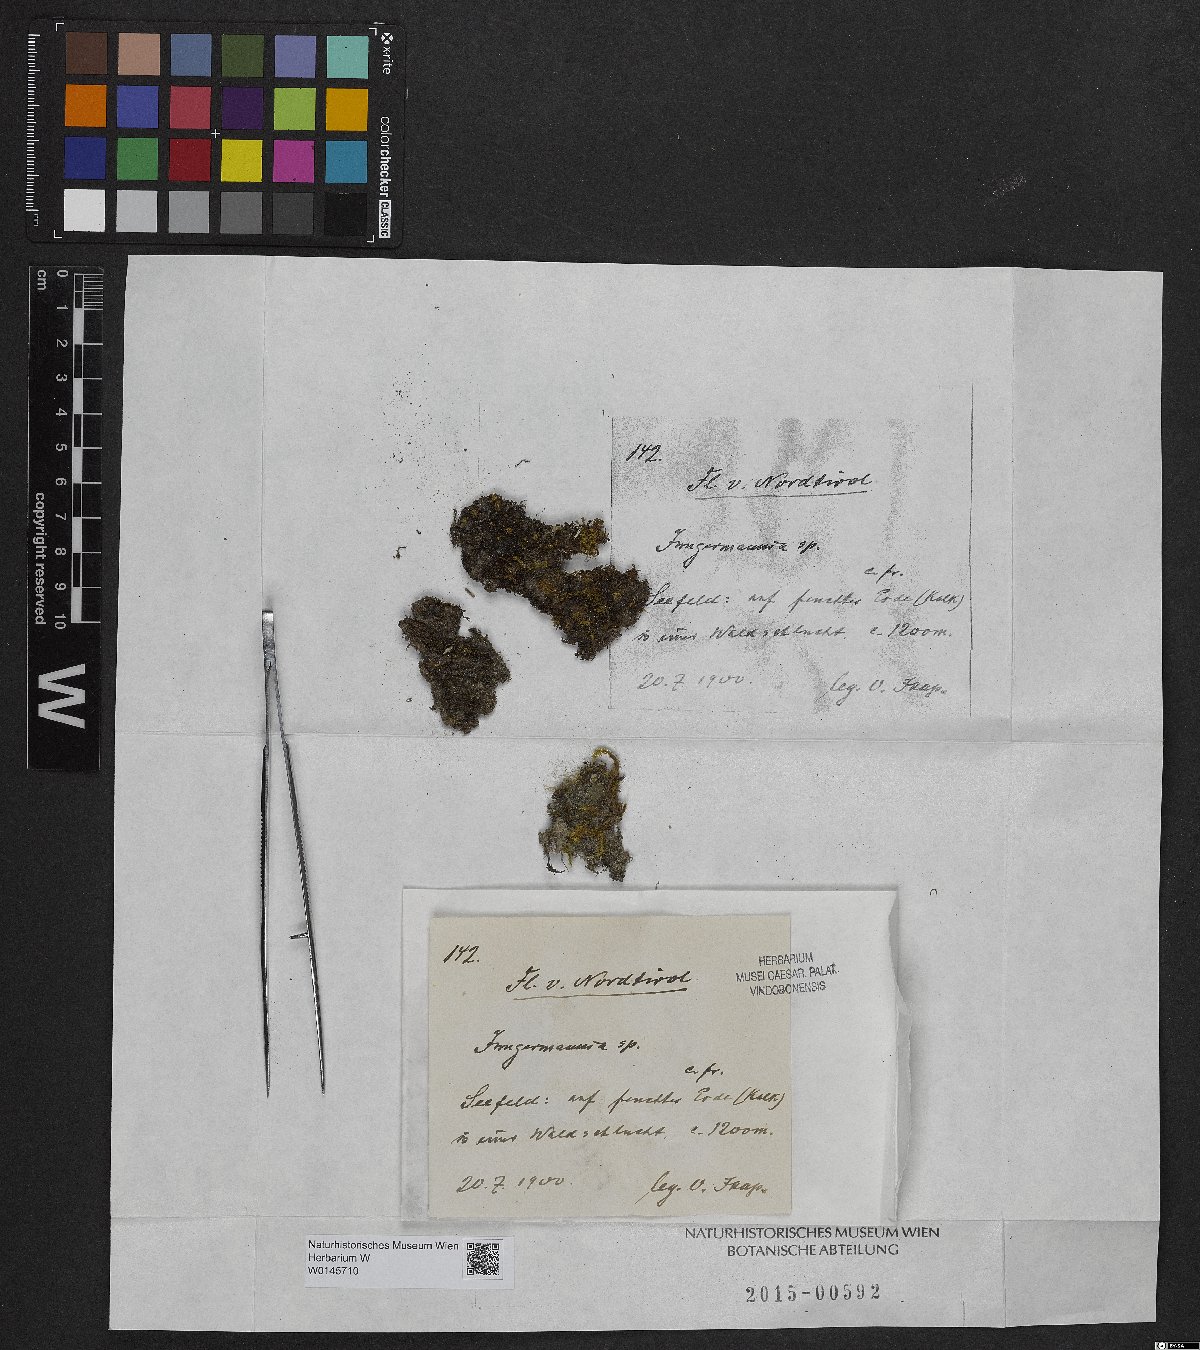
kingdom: Plantae
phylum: Marchantiophyta
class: Jungermanniopsida
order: Jungermanniales
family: Jungermanniaceae
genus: Jungermannia
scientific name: Jungermannia
